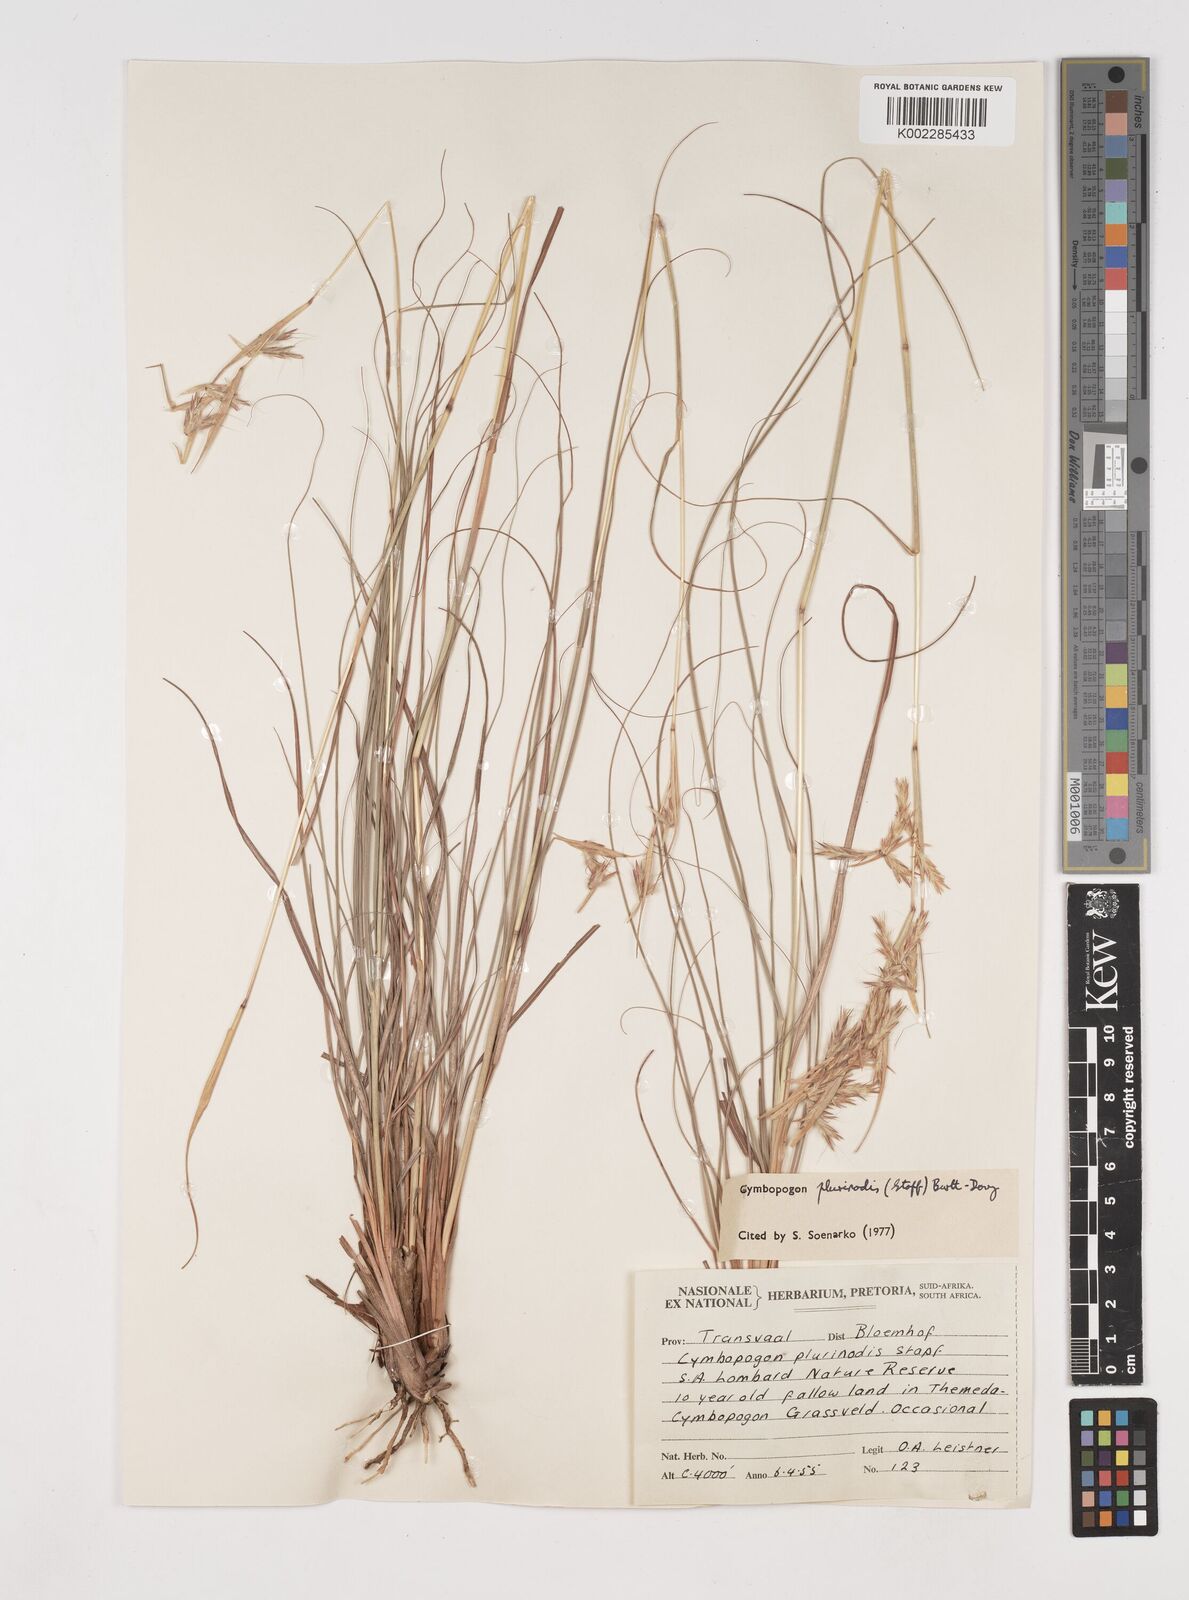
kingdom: Plantae
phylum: Tracheophyta
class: Liliopsida
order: Poales
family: Poaceae
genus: Cymbopogon
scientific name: Cymbopogon
